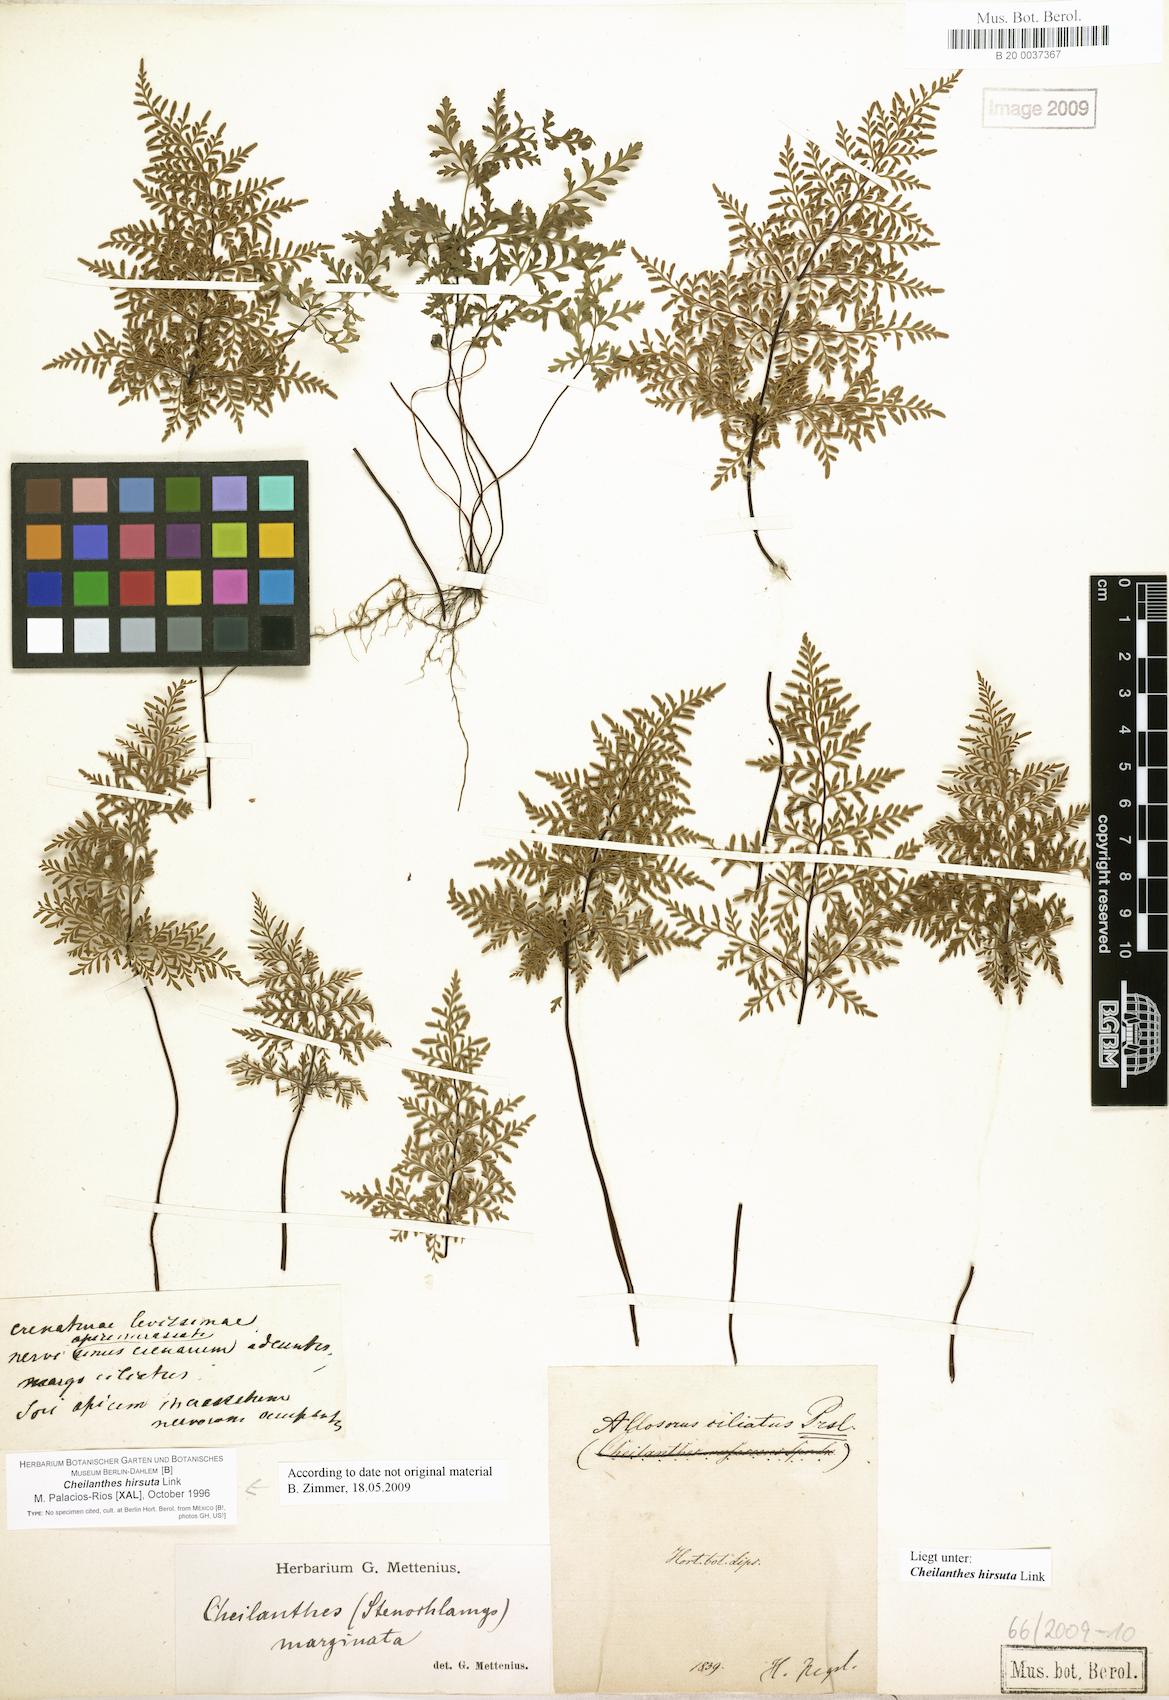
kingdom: Plantae
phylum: Tracheophyta
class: Polypodiopsida
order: Polypodiales
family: Pteridaceae
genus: Gaga
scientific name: Gaga marginata
